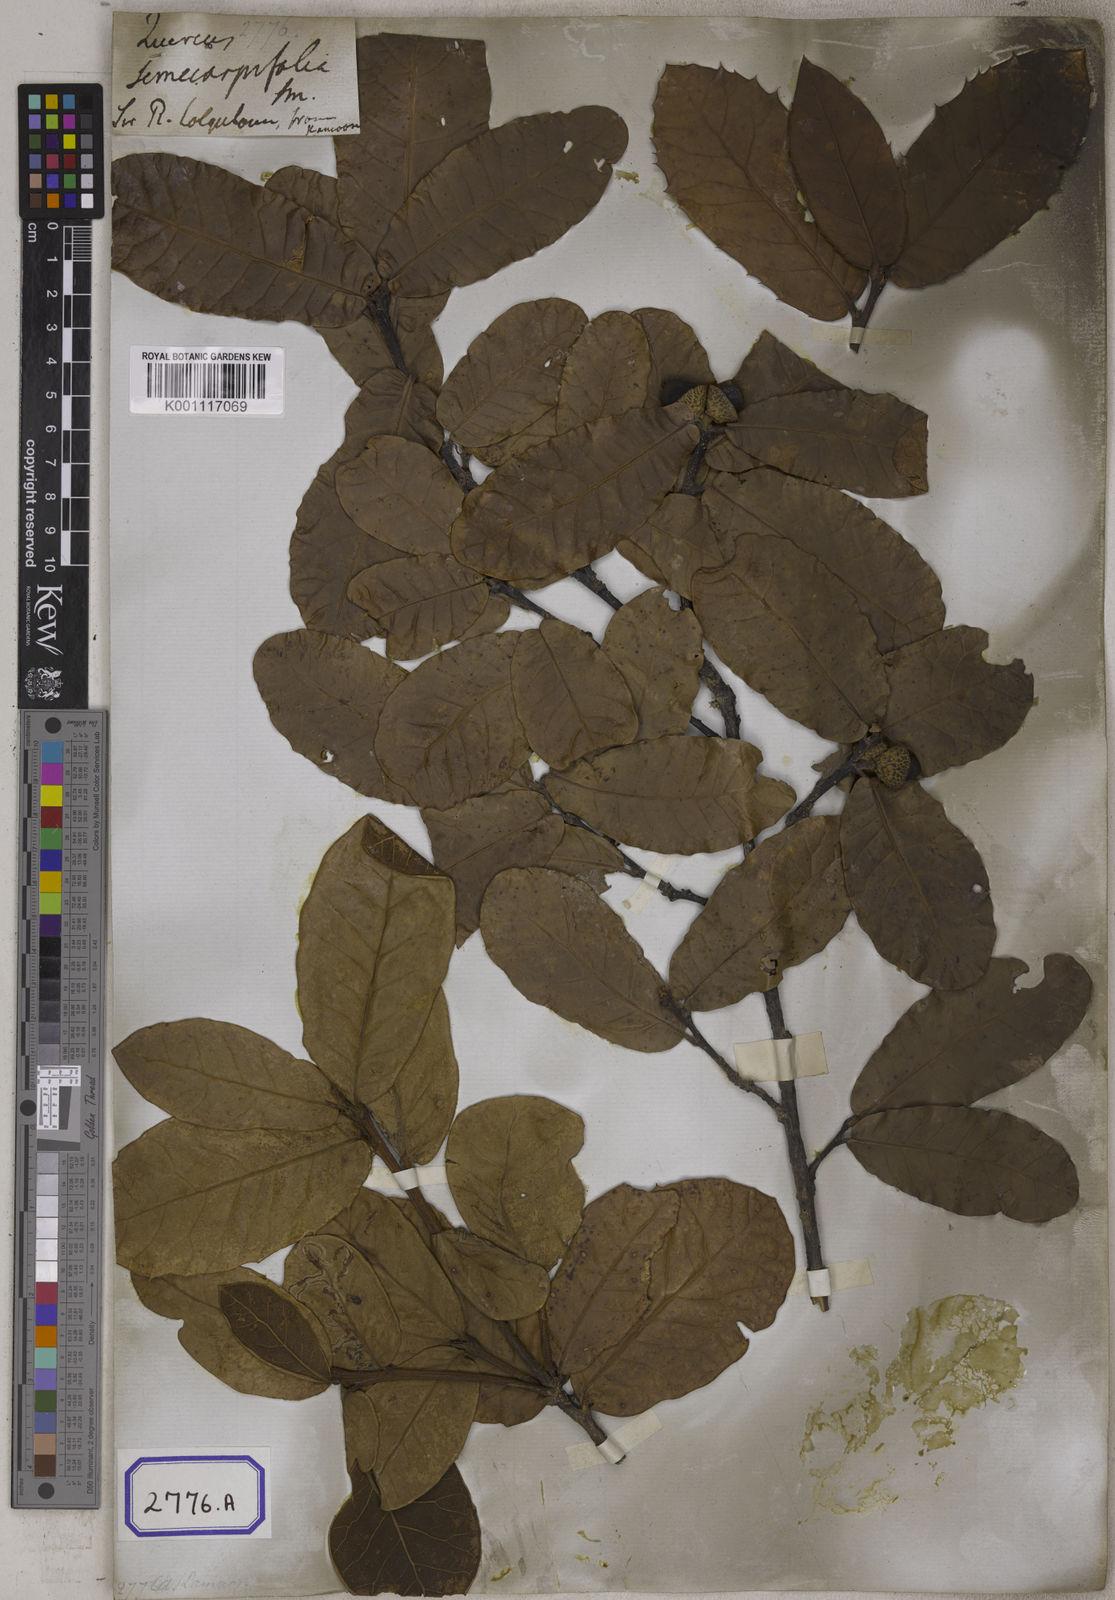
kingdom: Plantae
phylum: Tracheophyta
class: Magnoliopsida
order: Fagales
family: Fagaceae
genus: Quercus
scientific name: Quercus semecarpifolia
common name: Brown oak
